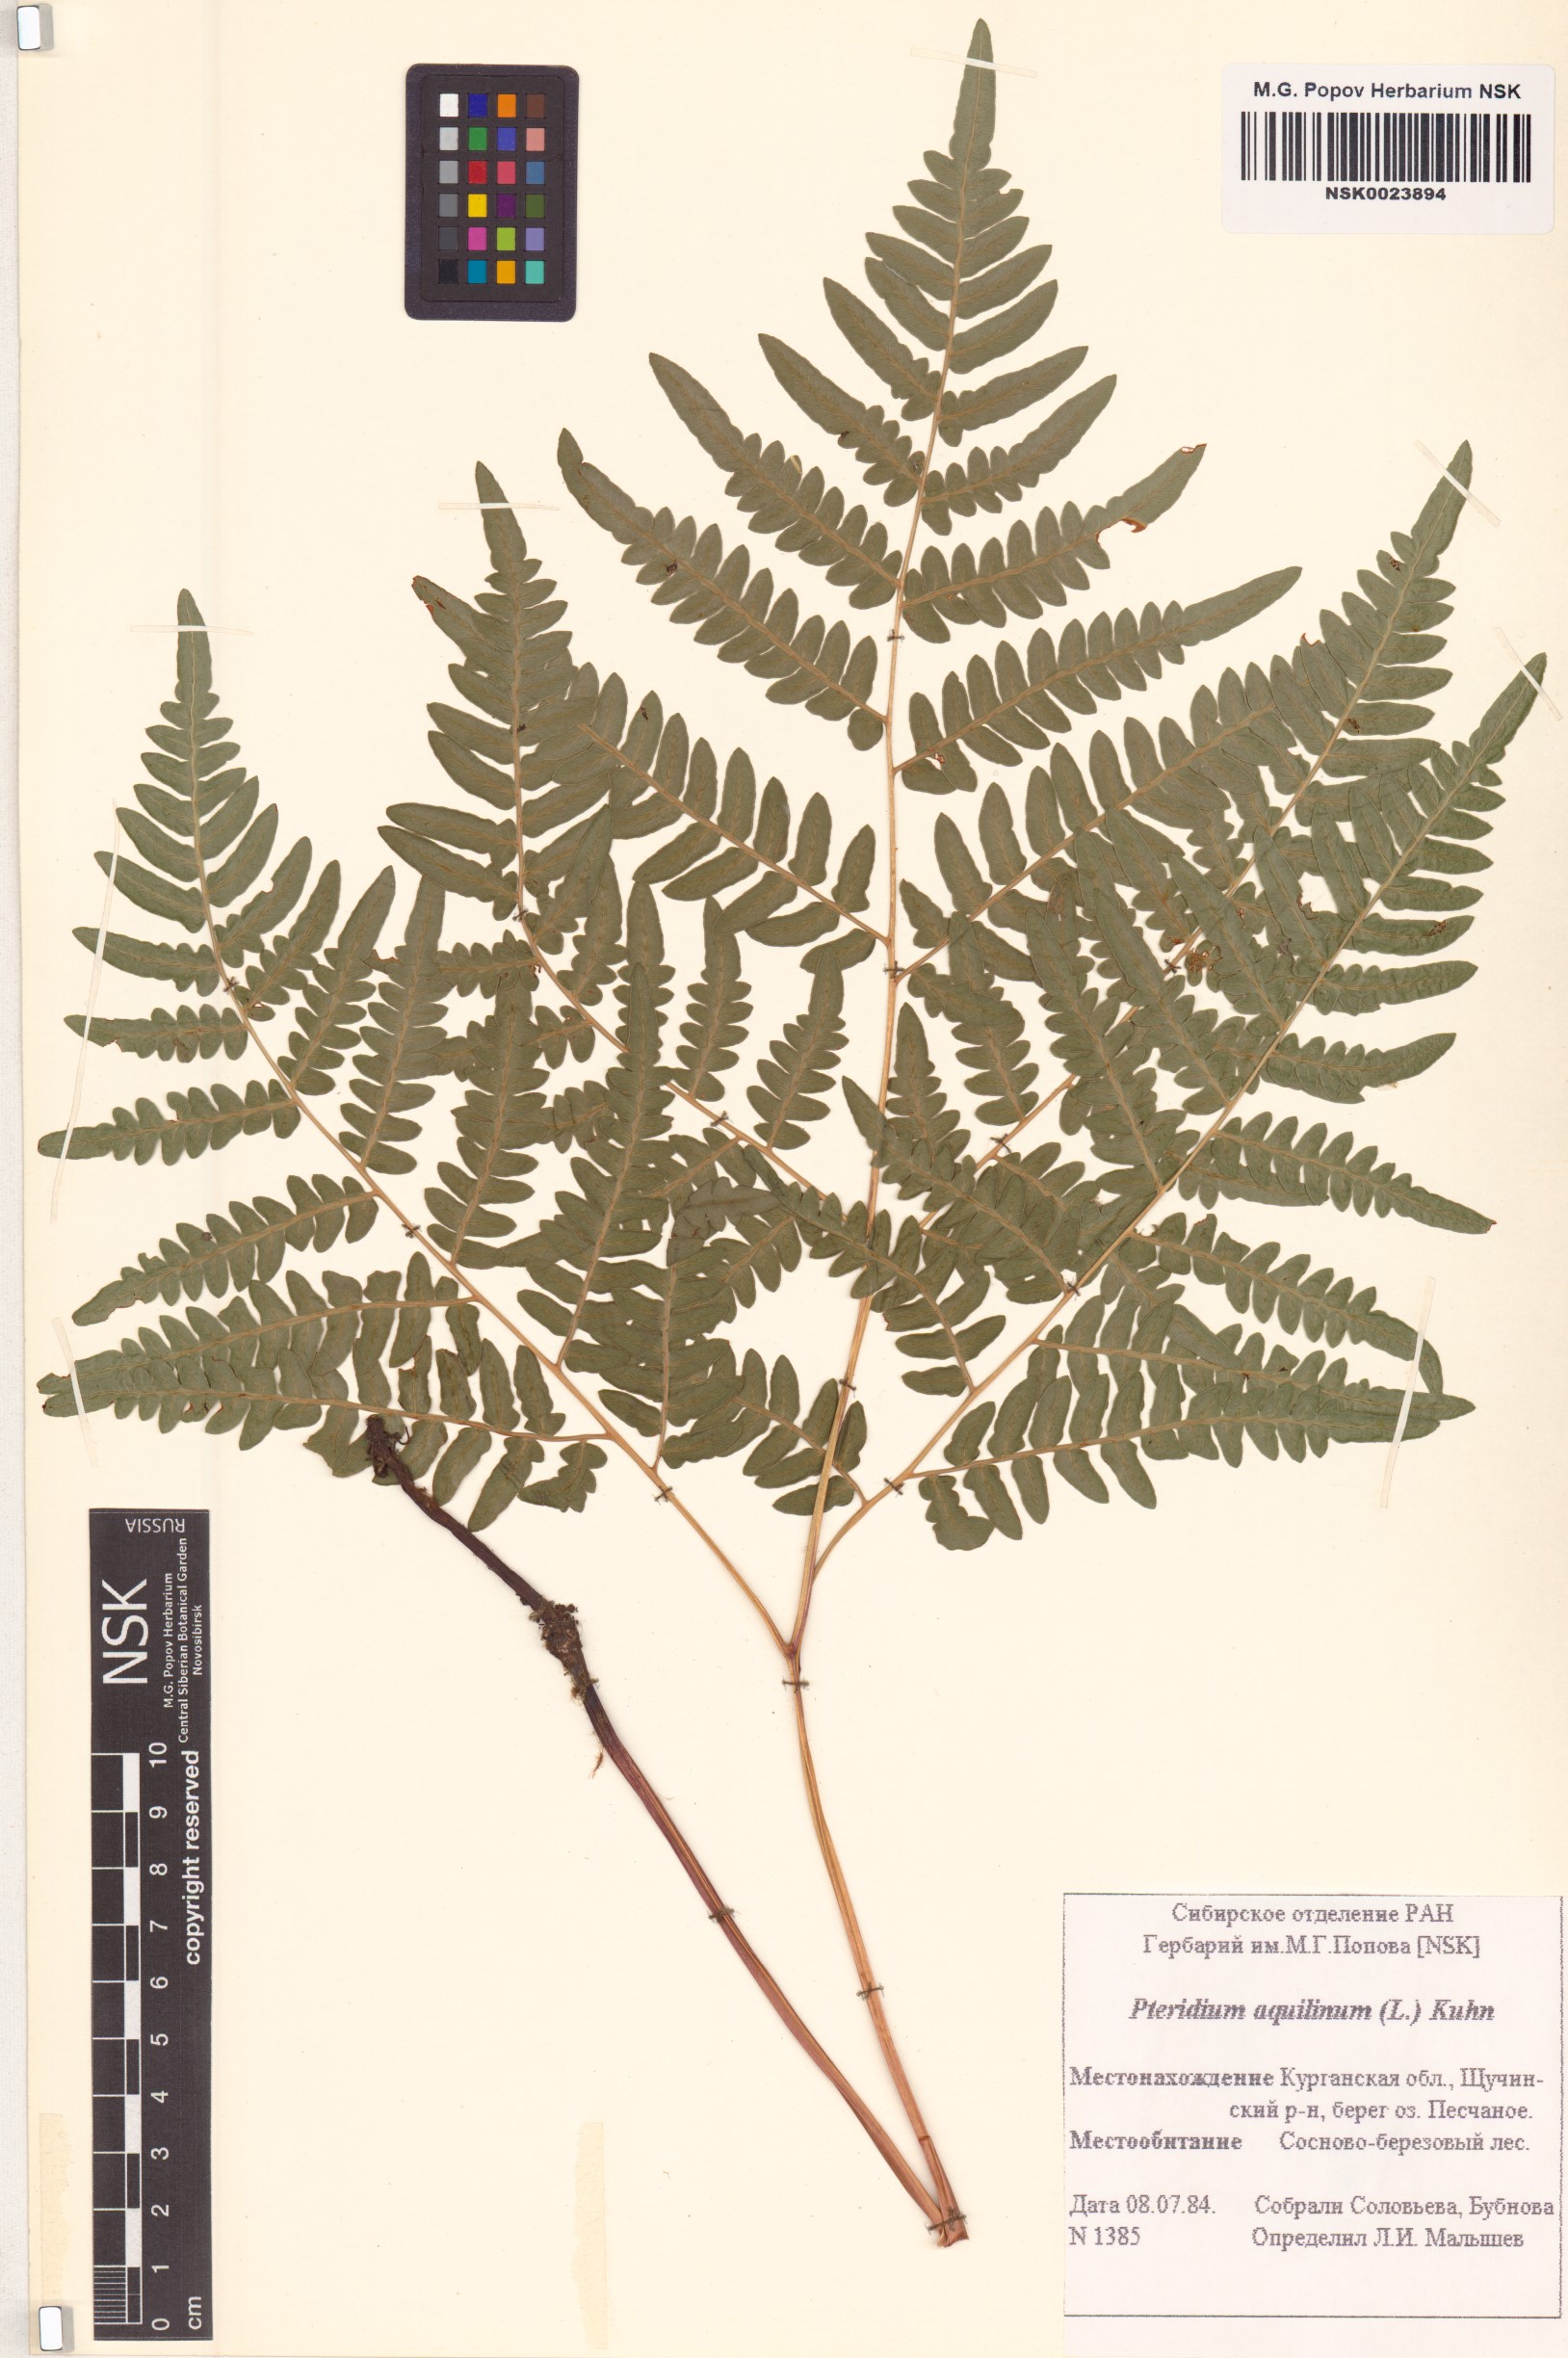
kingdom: Plantae
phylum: Tracheophyta
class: Polypodiopsida
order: Polypodiales
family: Dennstaedtiaceae
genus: Pteridium
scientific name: Pteridium aquilinum
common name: Bracken
